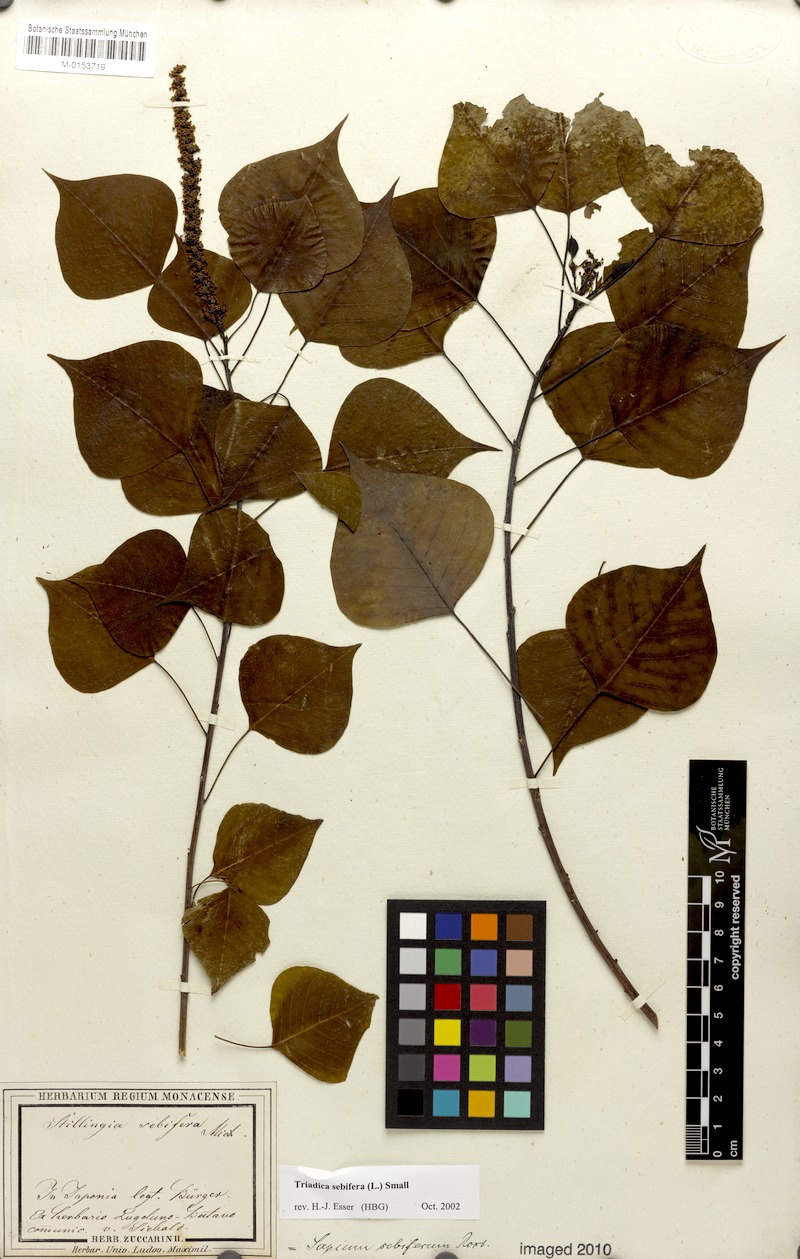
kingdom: Plantae
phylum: Tracheophyta
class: Magnoliopsida
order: Malpighiales
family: Euphorbiaceae
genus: Triadica
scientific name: Triadica sebifera
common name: Chinese tallow
